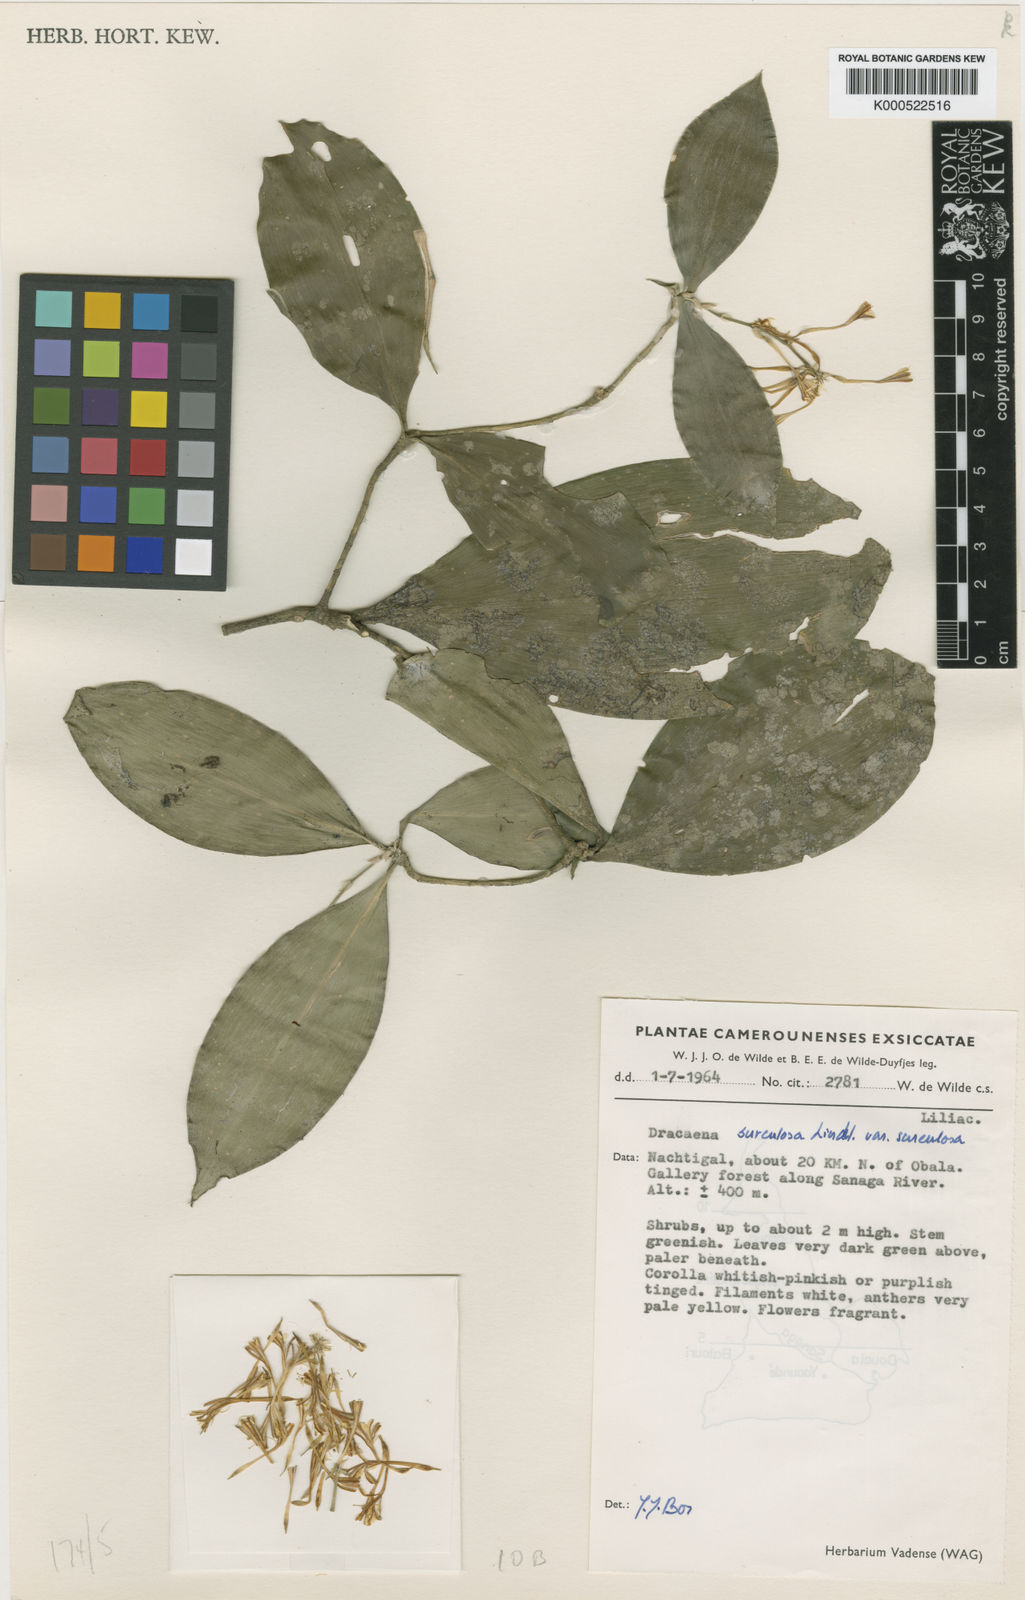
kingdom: Plantae
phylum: Tracheophyta
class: Liliopsida
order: Asparagales
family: Asparagaceae
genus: Dracaena
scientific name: Dracaena surculosa
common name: Spotted dracaena
